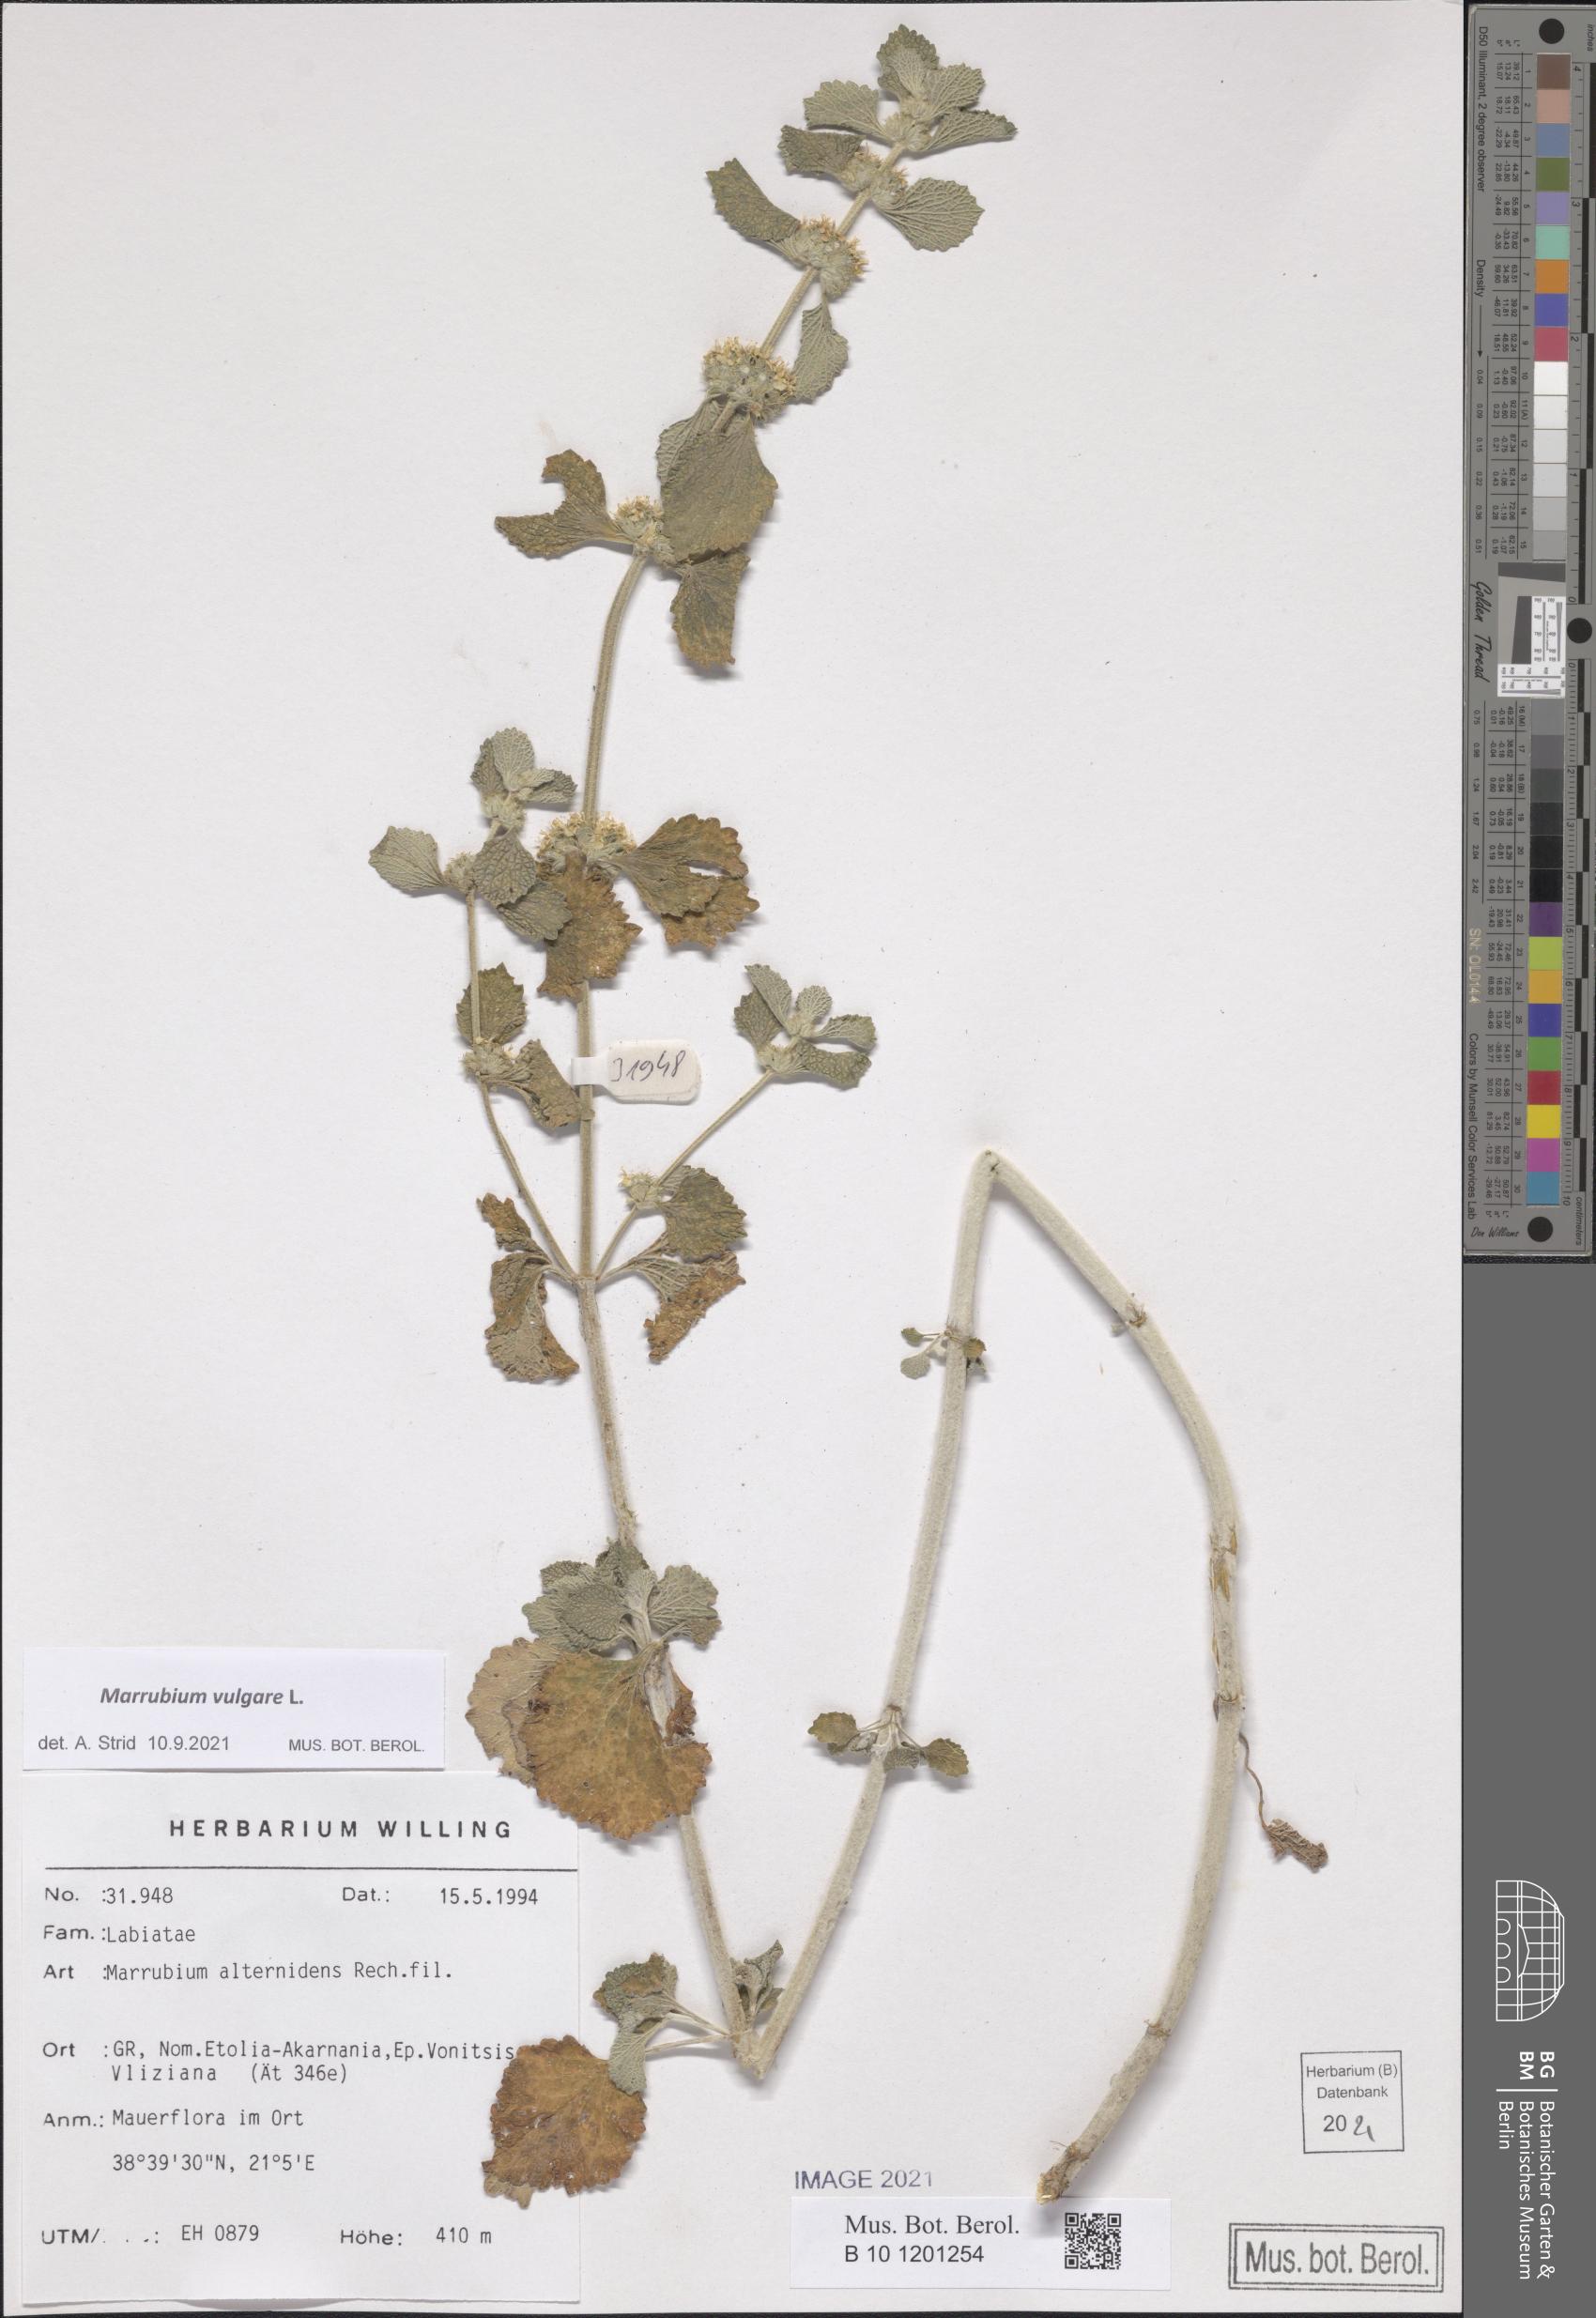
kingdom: Plantae
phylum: Tracheophyta
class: Magnoliopsida
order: Lamiales
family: Lamiaceae
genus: Marrubium
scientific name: Marrubium vulgare
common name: Horehound
